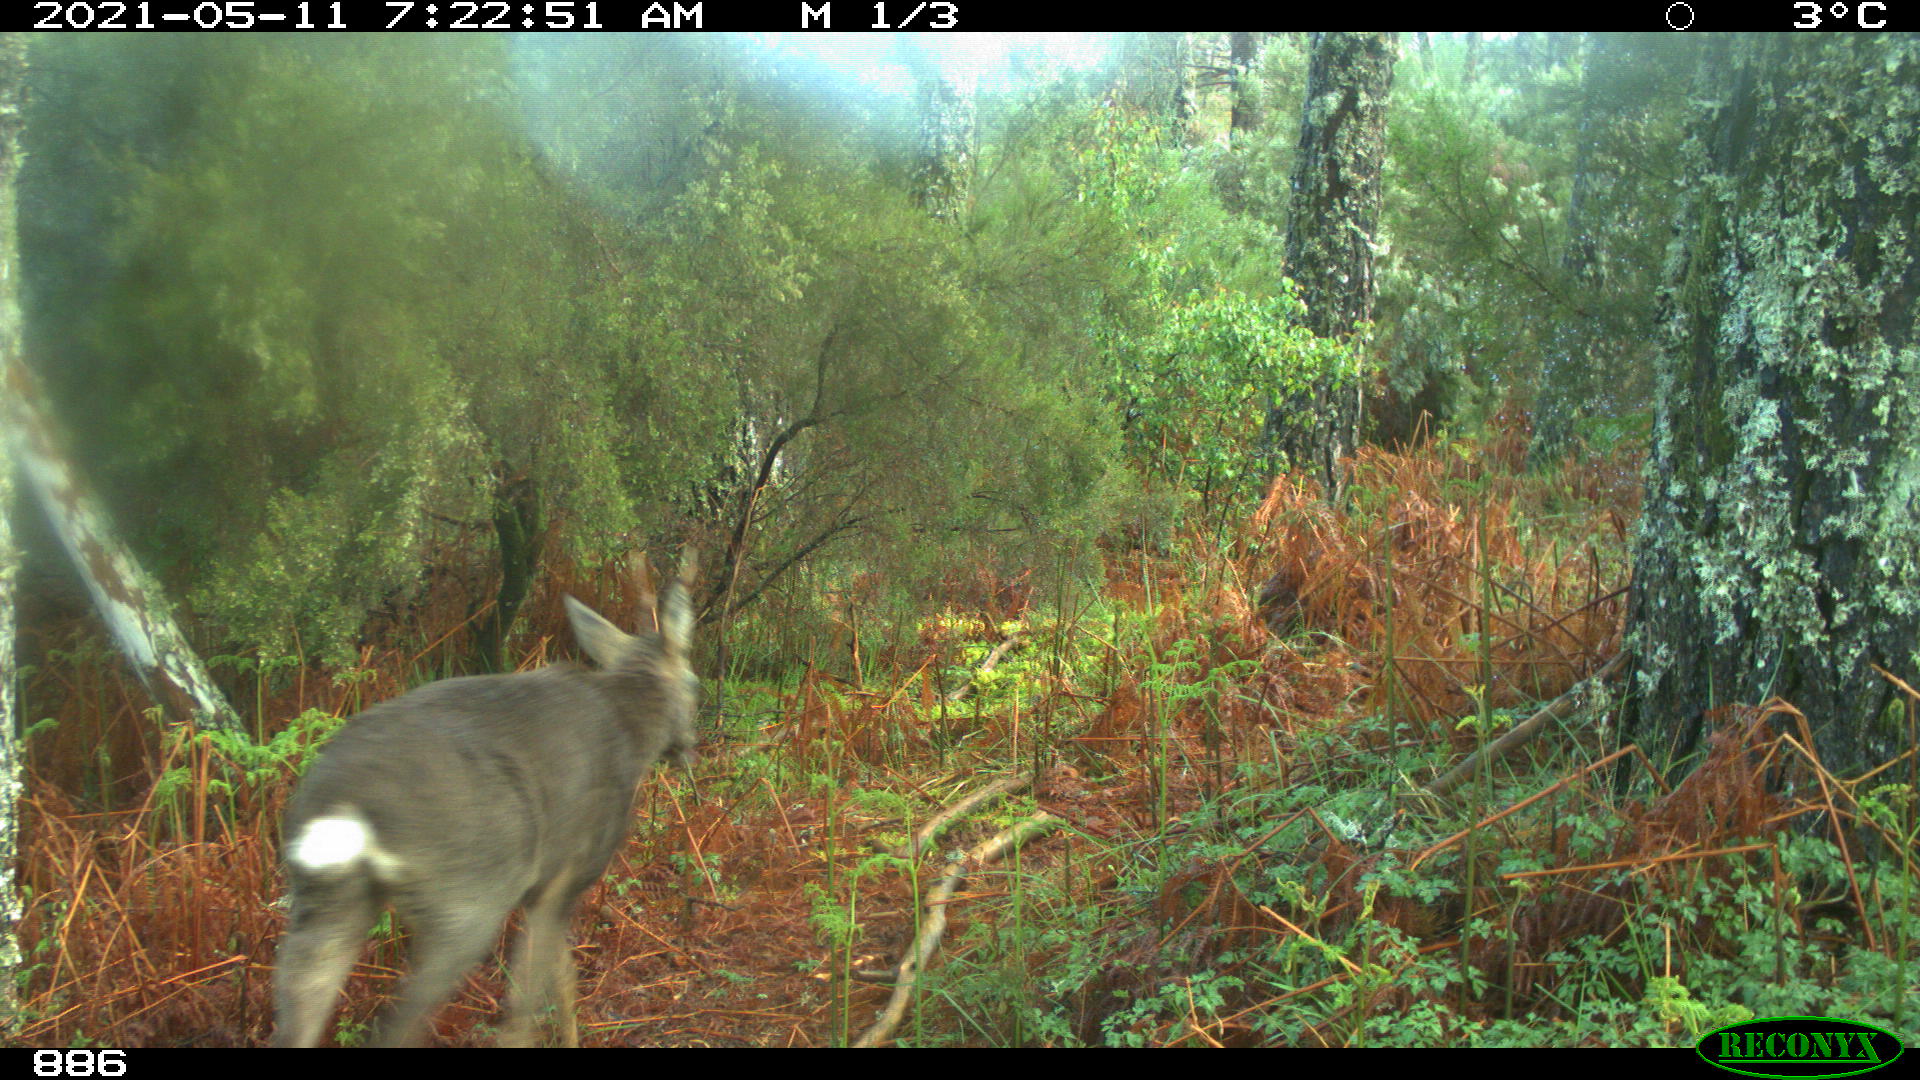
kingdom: Animalia
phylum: Chordata
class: Mammalia
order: Artiodactyla
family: Cervidae
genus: Capreolus
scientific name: Capreolus capreolus
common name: Western roe deer
